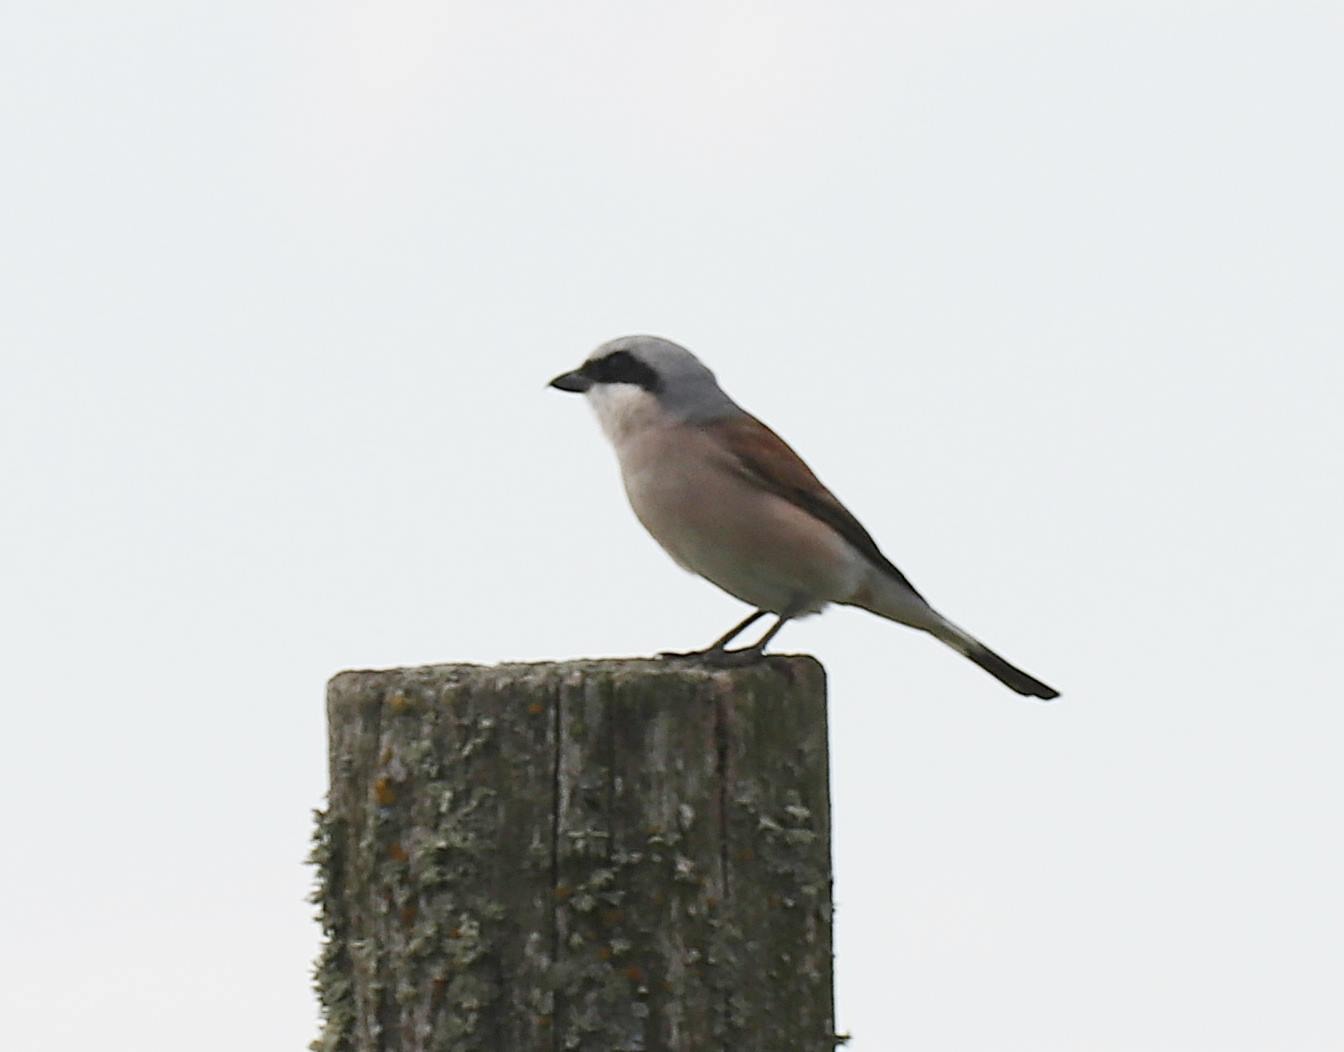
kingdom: Animalia
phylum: Chordata
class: Aves
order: Passeriformes
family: Laniidae
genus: Lanius
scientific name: Lanius collurio
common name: Rødrygget tornskade
